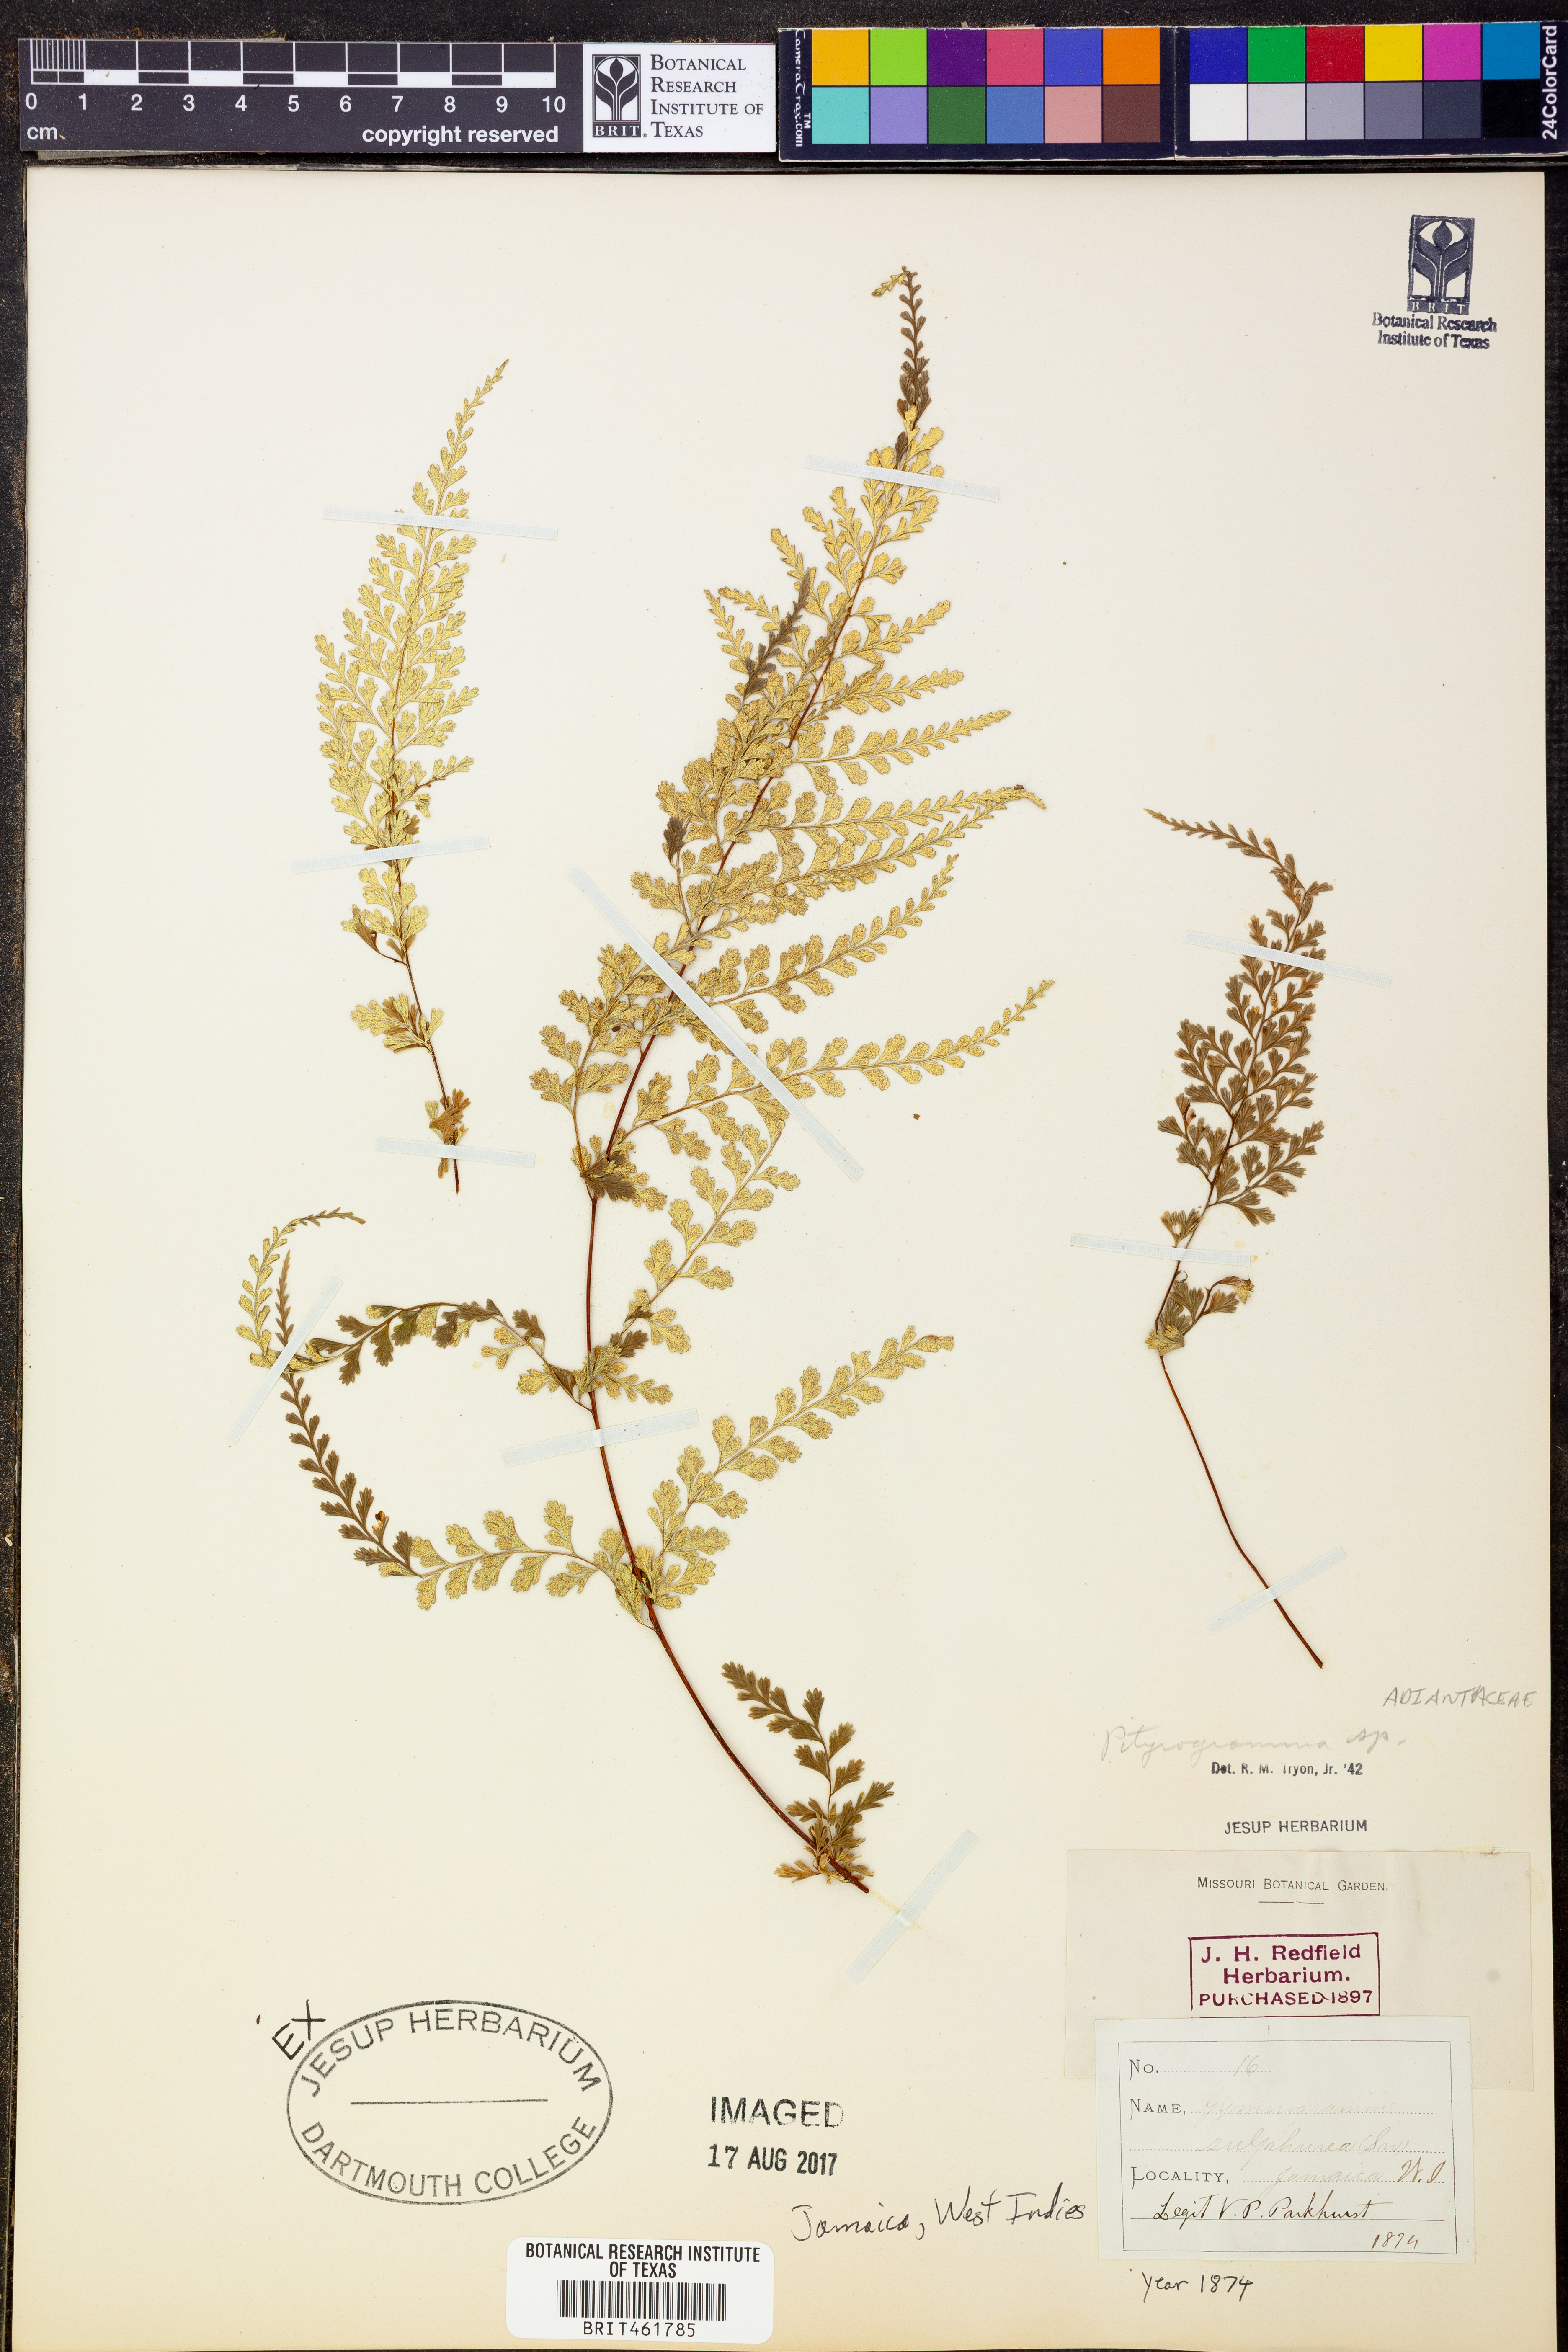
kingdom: Plantae
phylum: Tracheophyta
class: Polypodiopsida
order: Polypodiales
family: Pteridaceae
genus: Pityrogramma
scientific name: Pityrogramma
